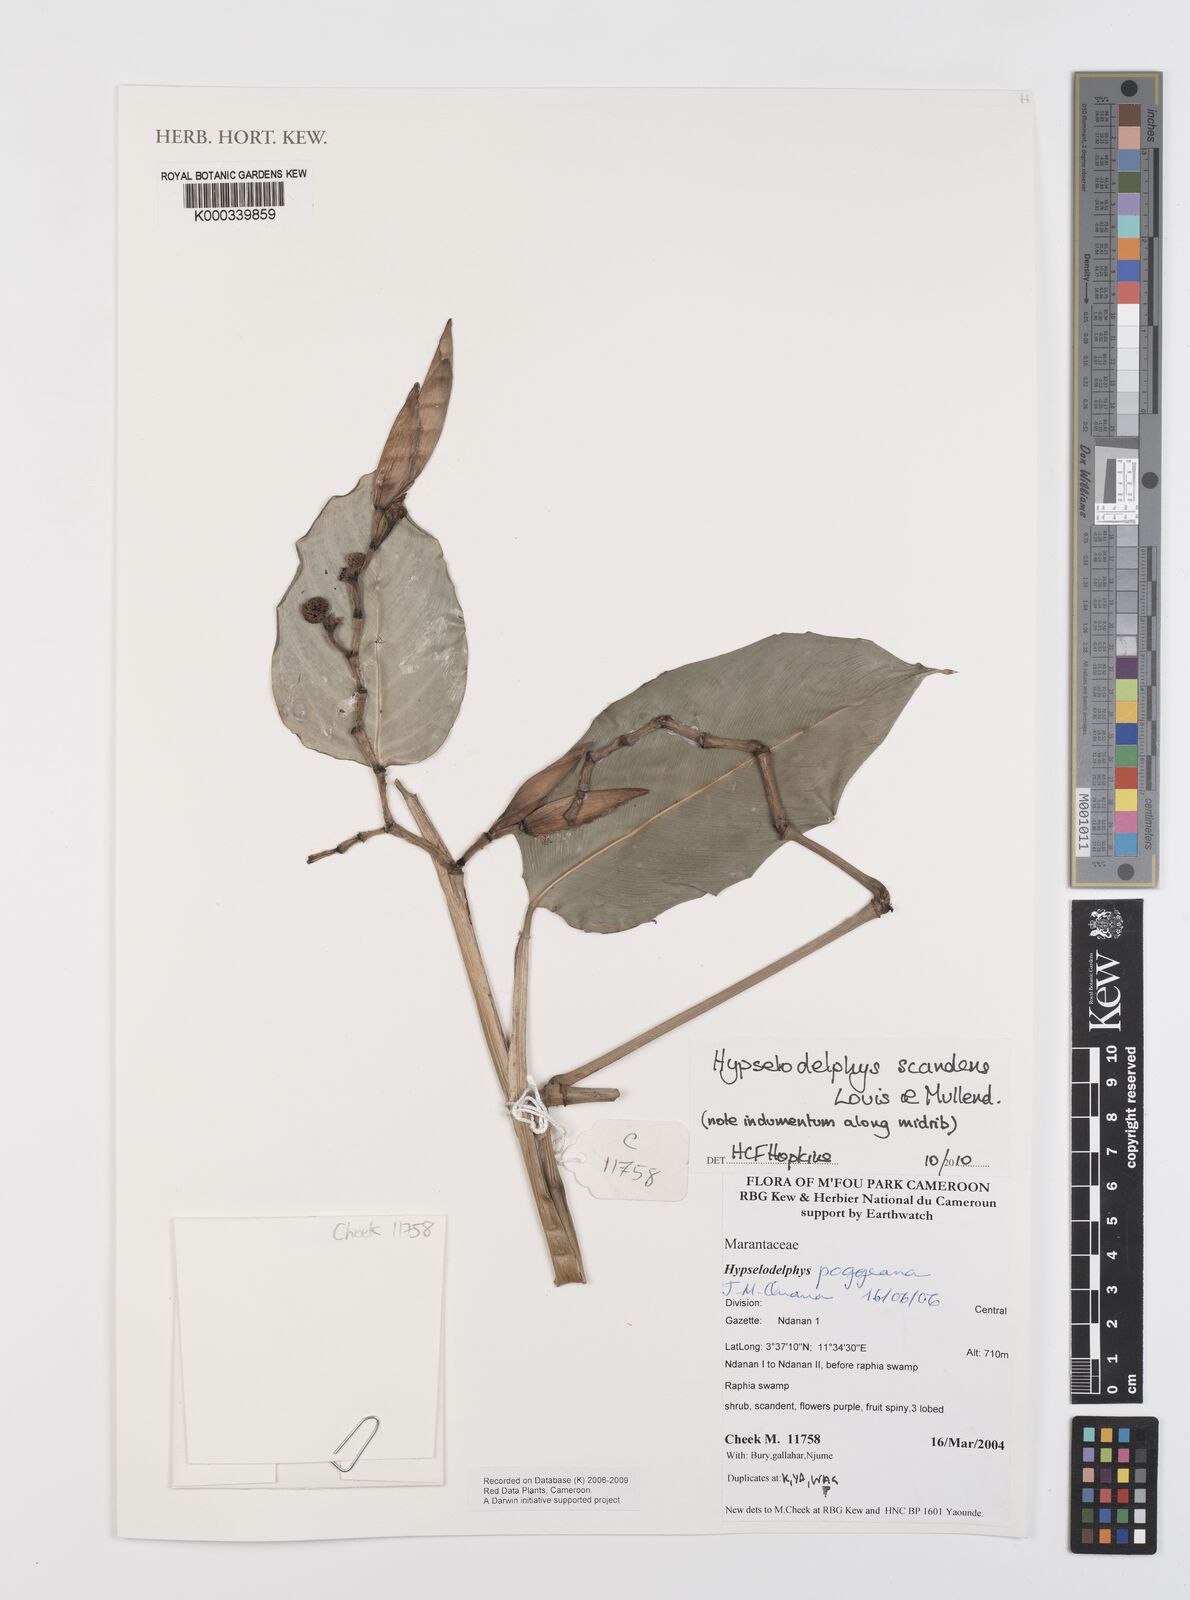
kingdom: Plantae
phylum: Tracheophyta
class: Liliopsida
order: Zingiberales
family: Marantaceae
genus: Hypselodelphys
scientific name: Hypselodelphys scandens
